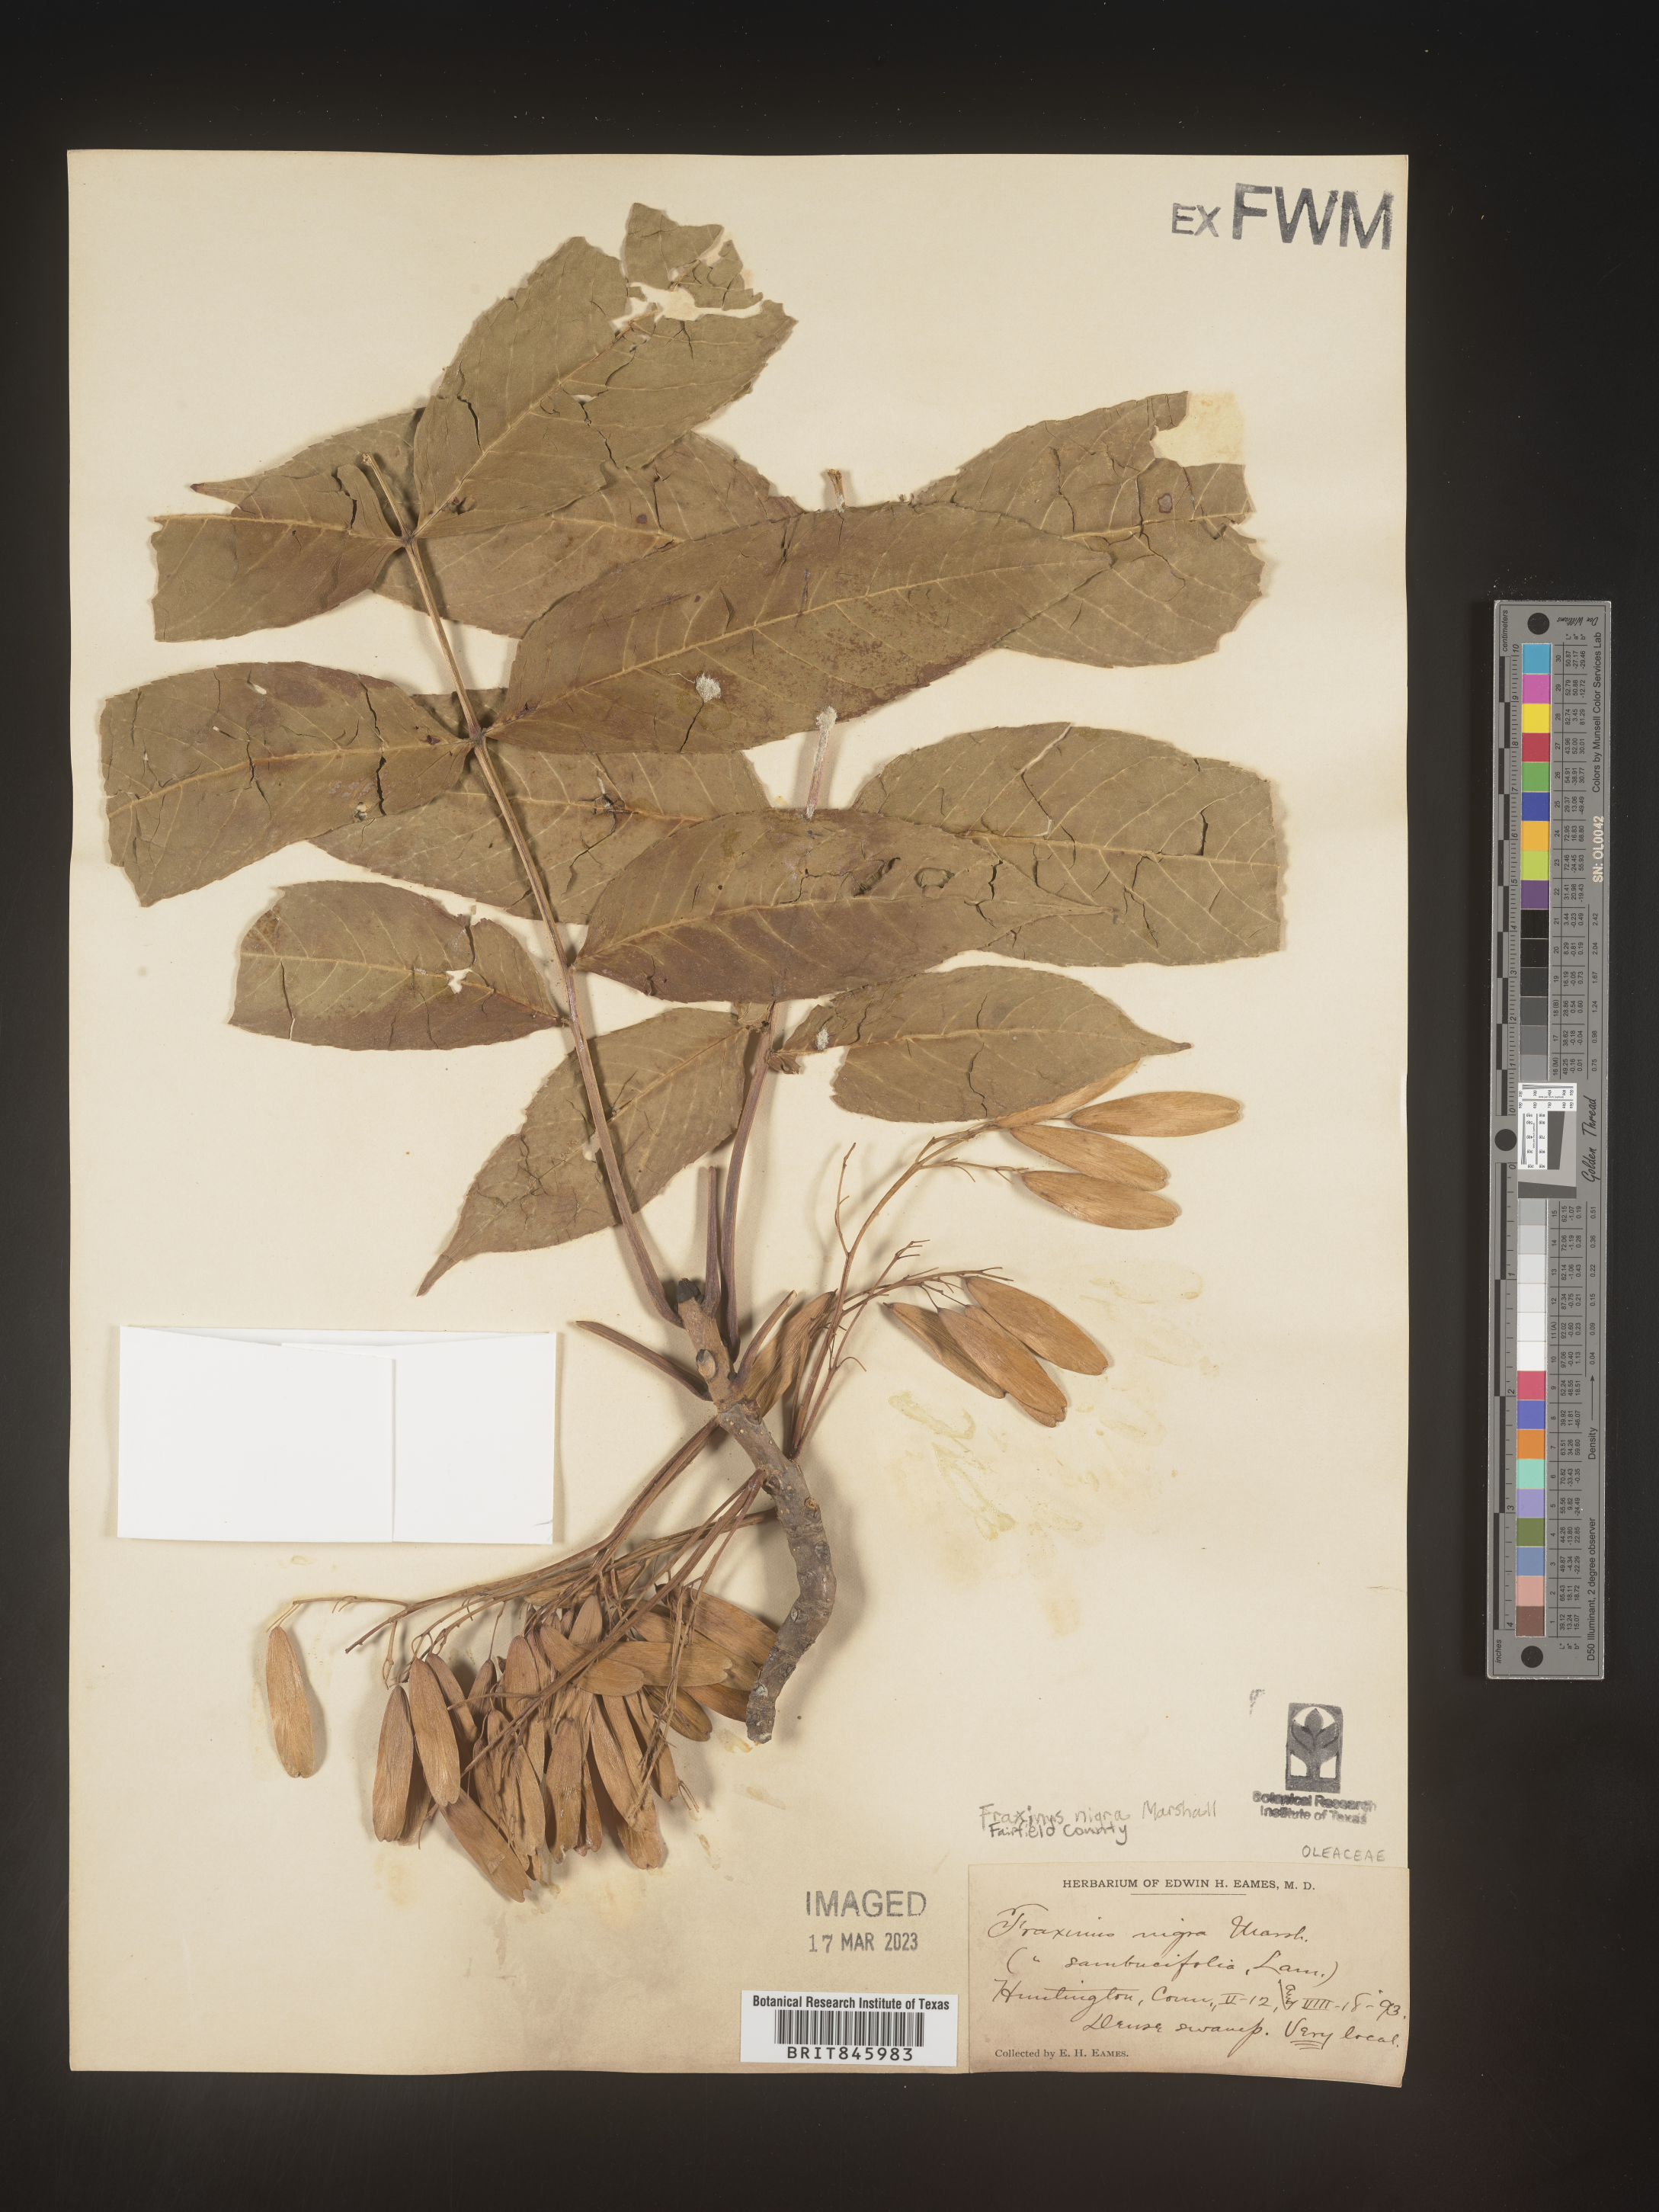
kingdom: Plantae
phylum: Tracheophyta
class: Magnoliopsida
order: Lamiales
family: Oleaceae
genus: Fraxinus
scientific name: Fraxinus nigra
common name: Black ash
